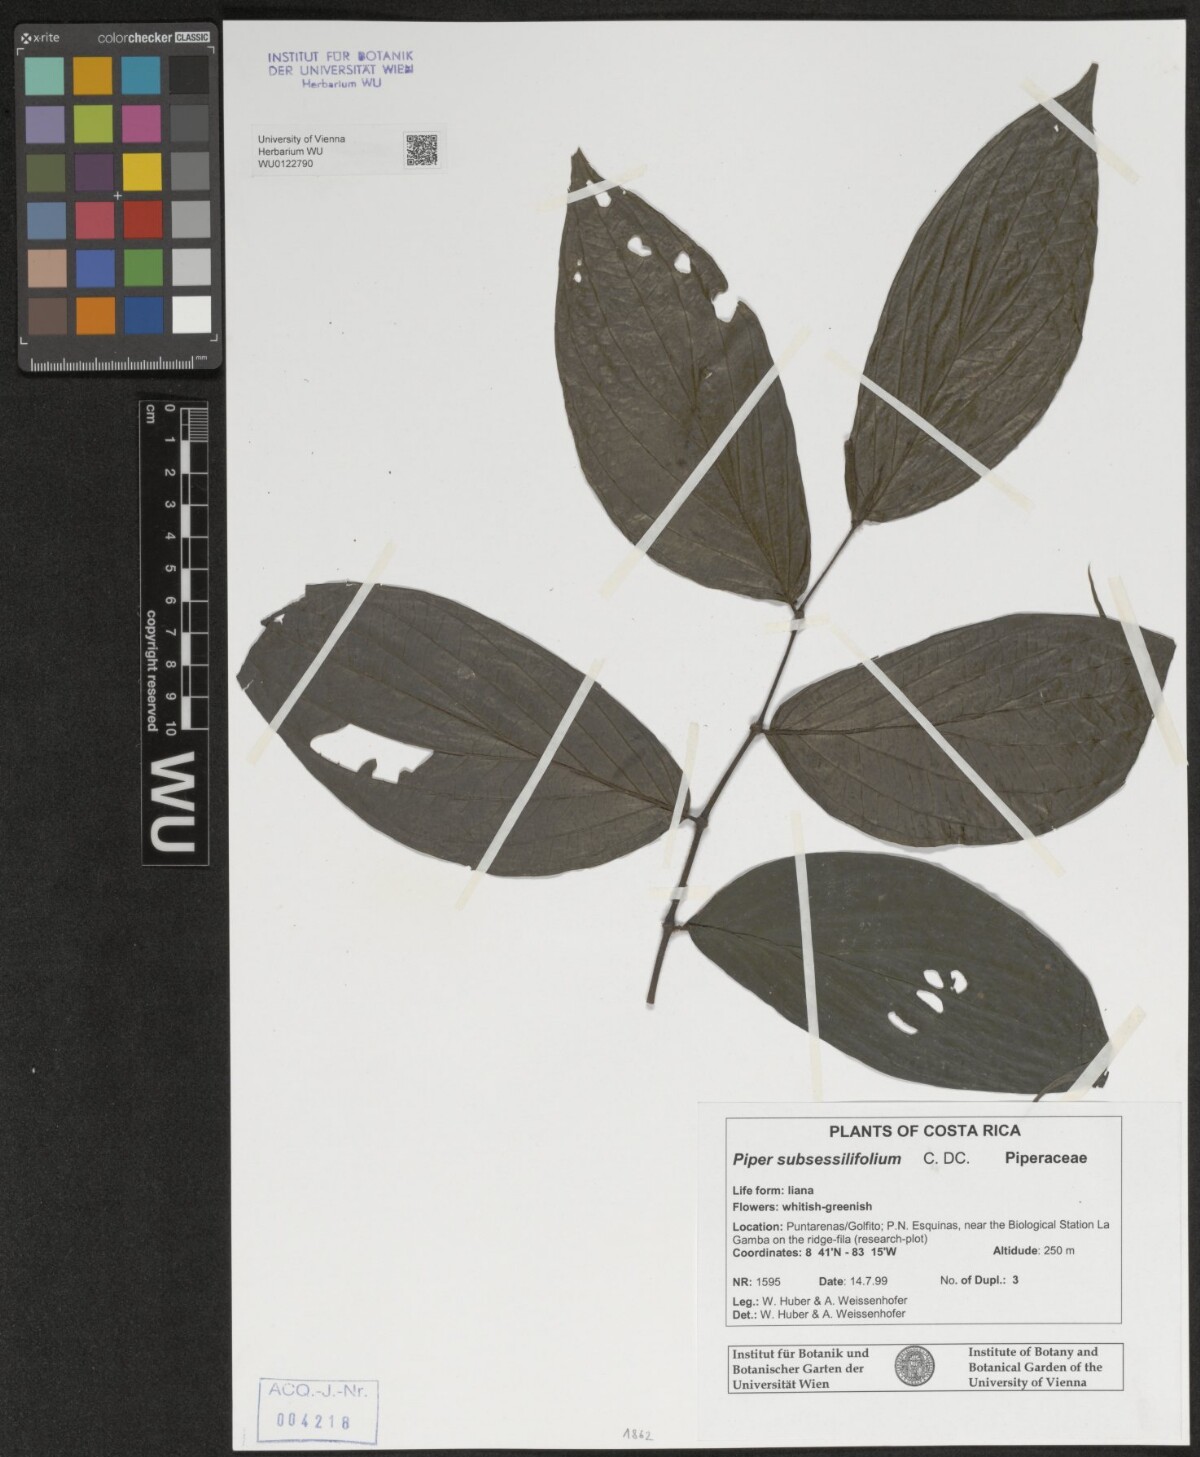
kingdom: Plantae
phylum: Tracheophyta
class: Magnoliopsida
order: Piperales
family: Piperaceae
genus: Piper
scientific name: Piper subsessilifolium
